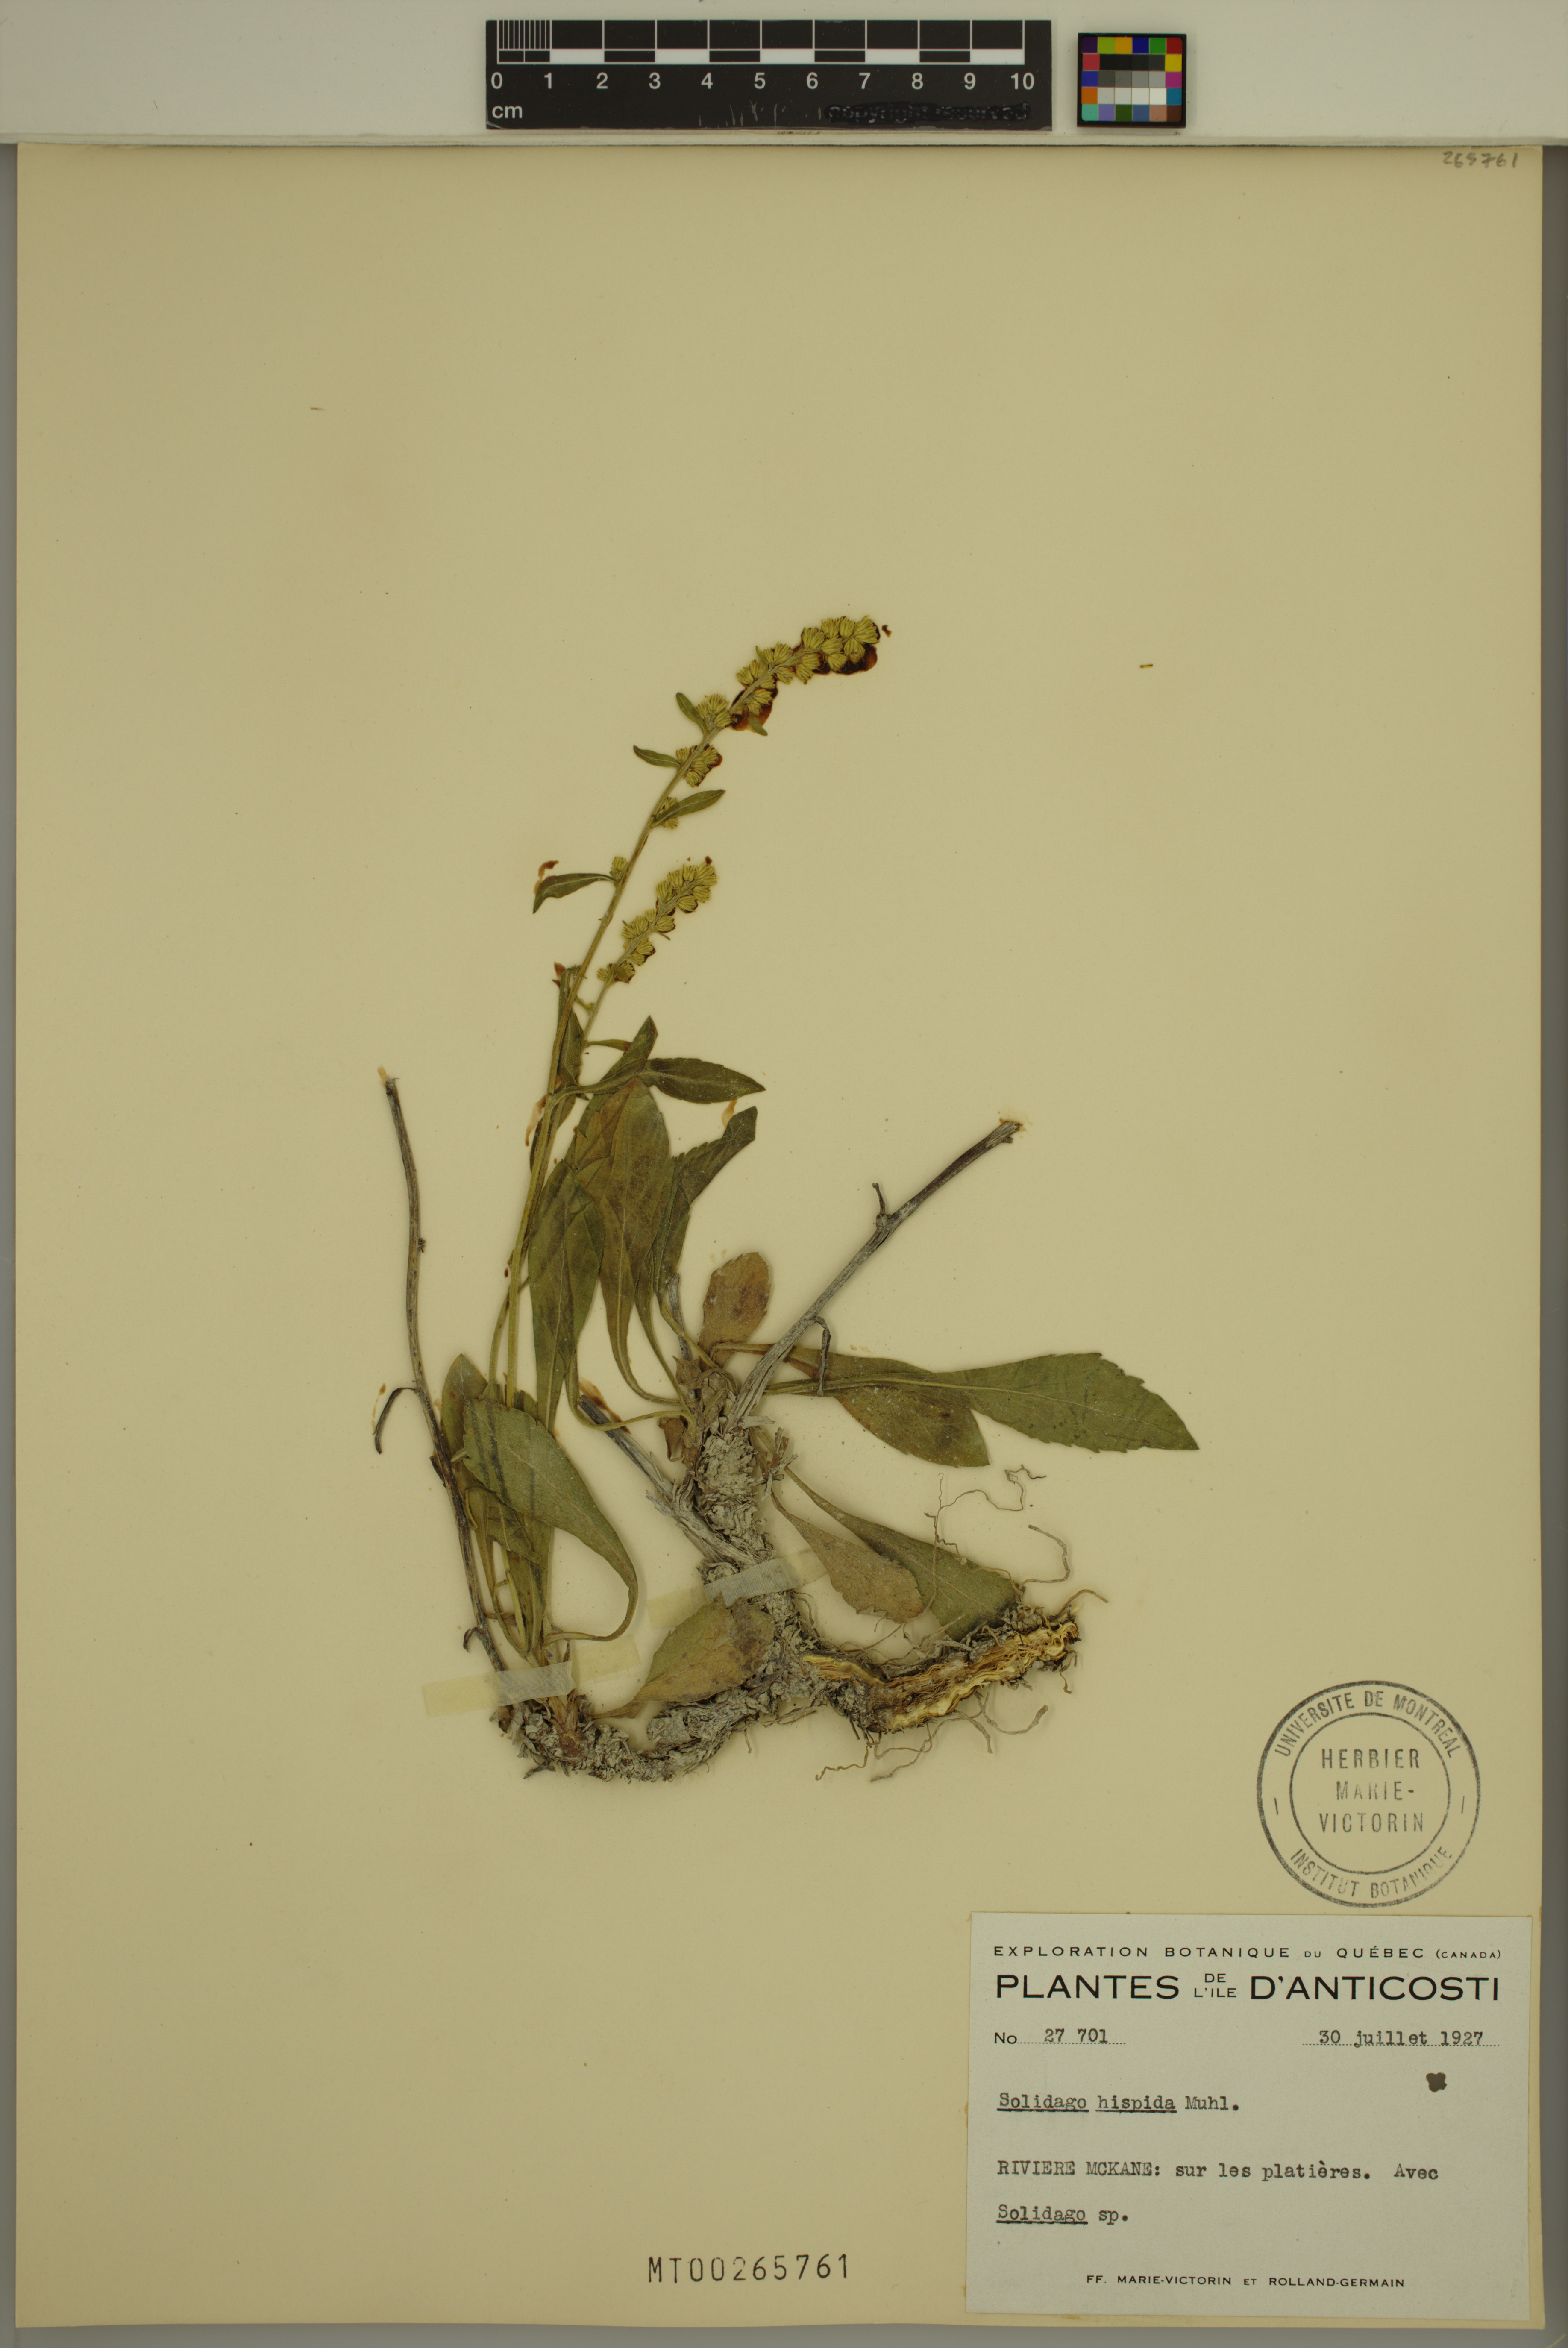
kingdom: Plantae
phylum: Tracheophyta
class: Magnoliopsida
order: Asterales
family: Asteraceae
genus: Solidago
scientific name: Solidago hispida
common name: Hairy goldenrod
